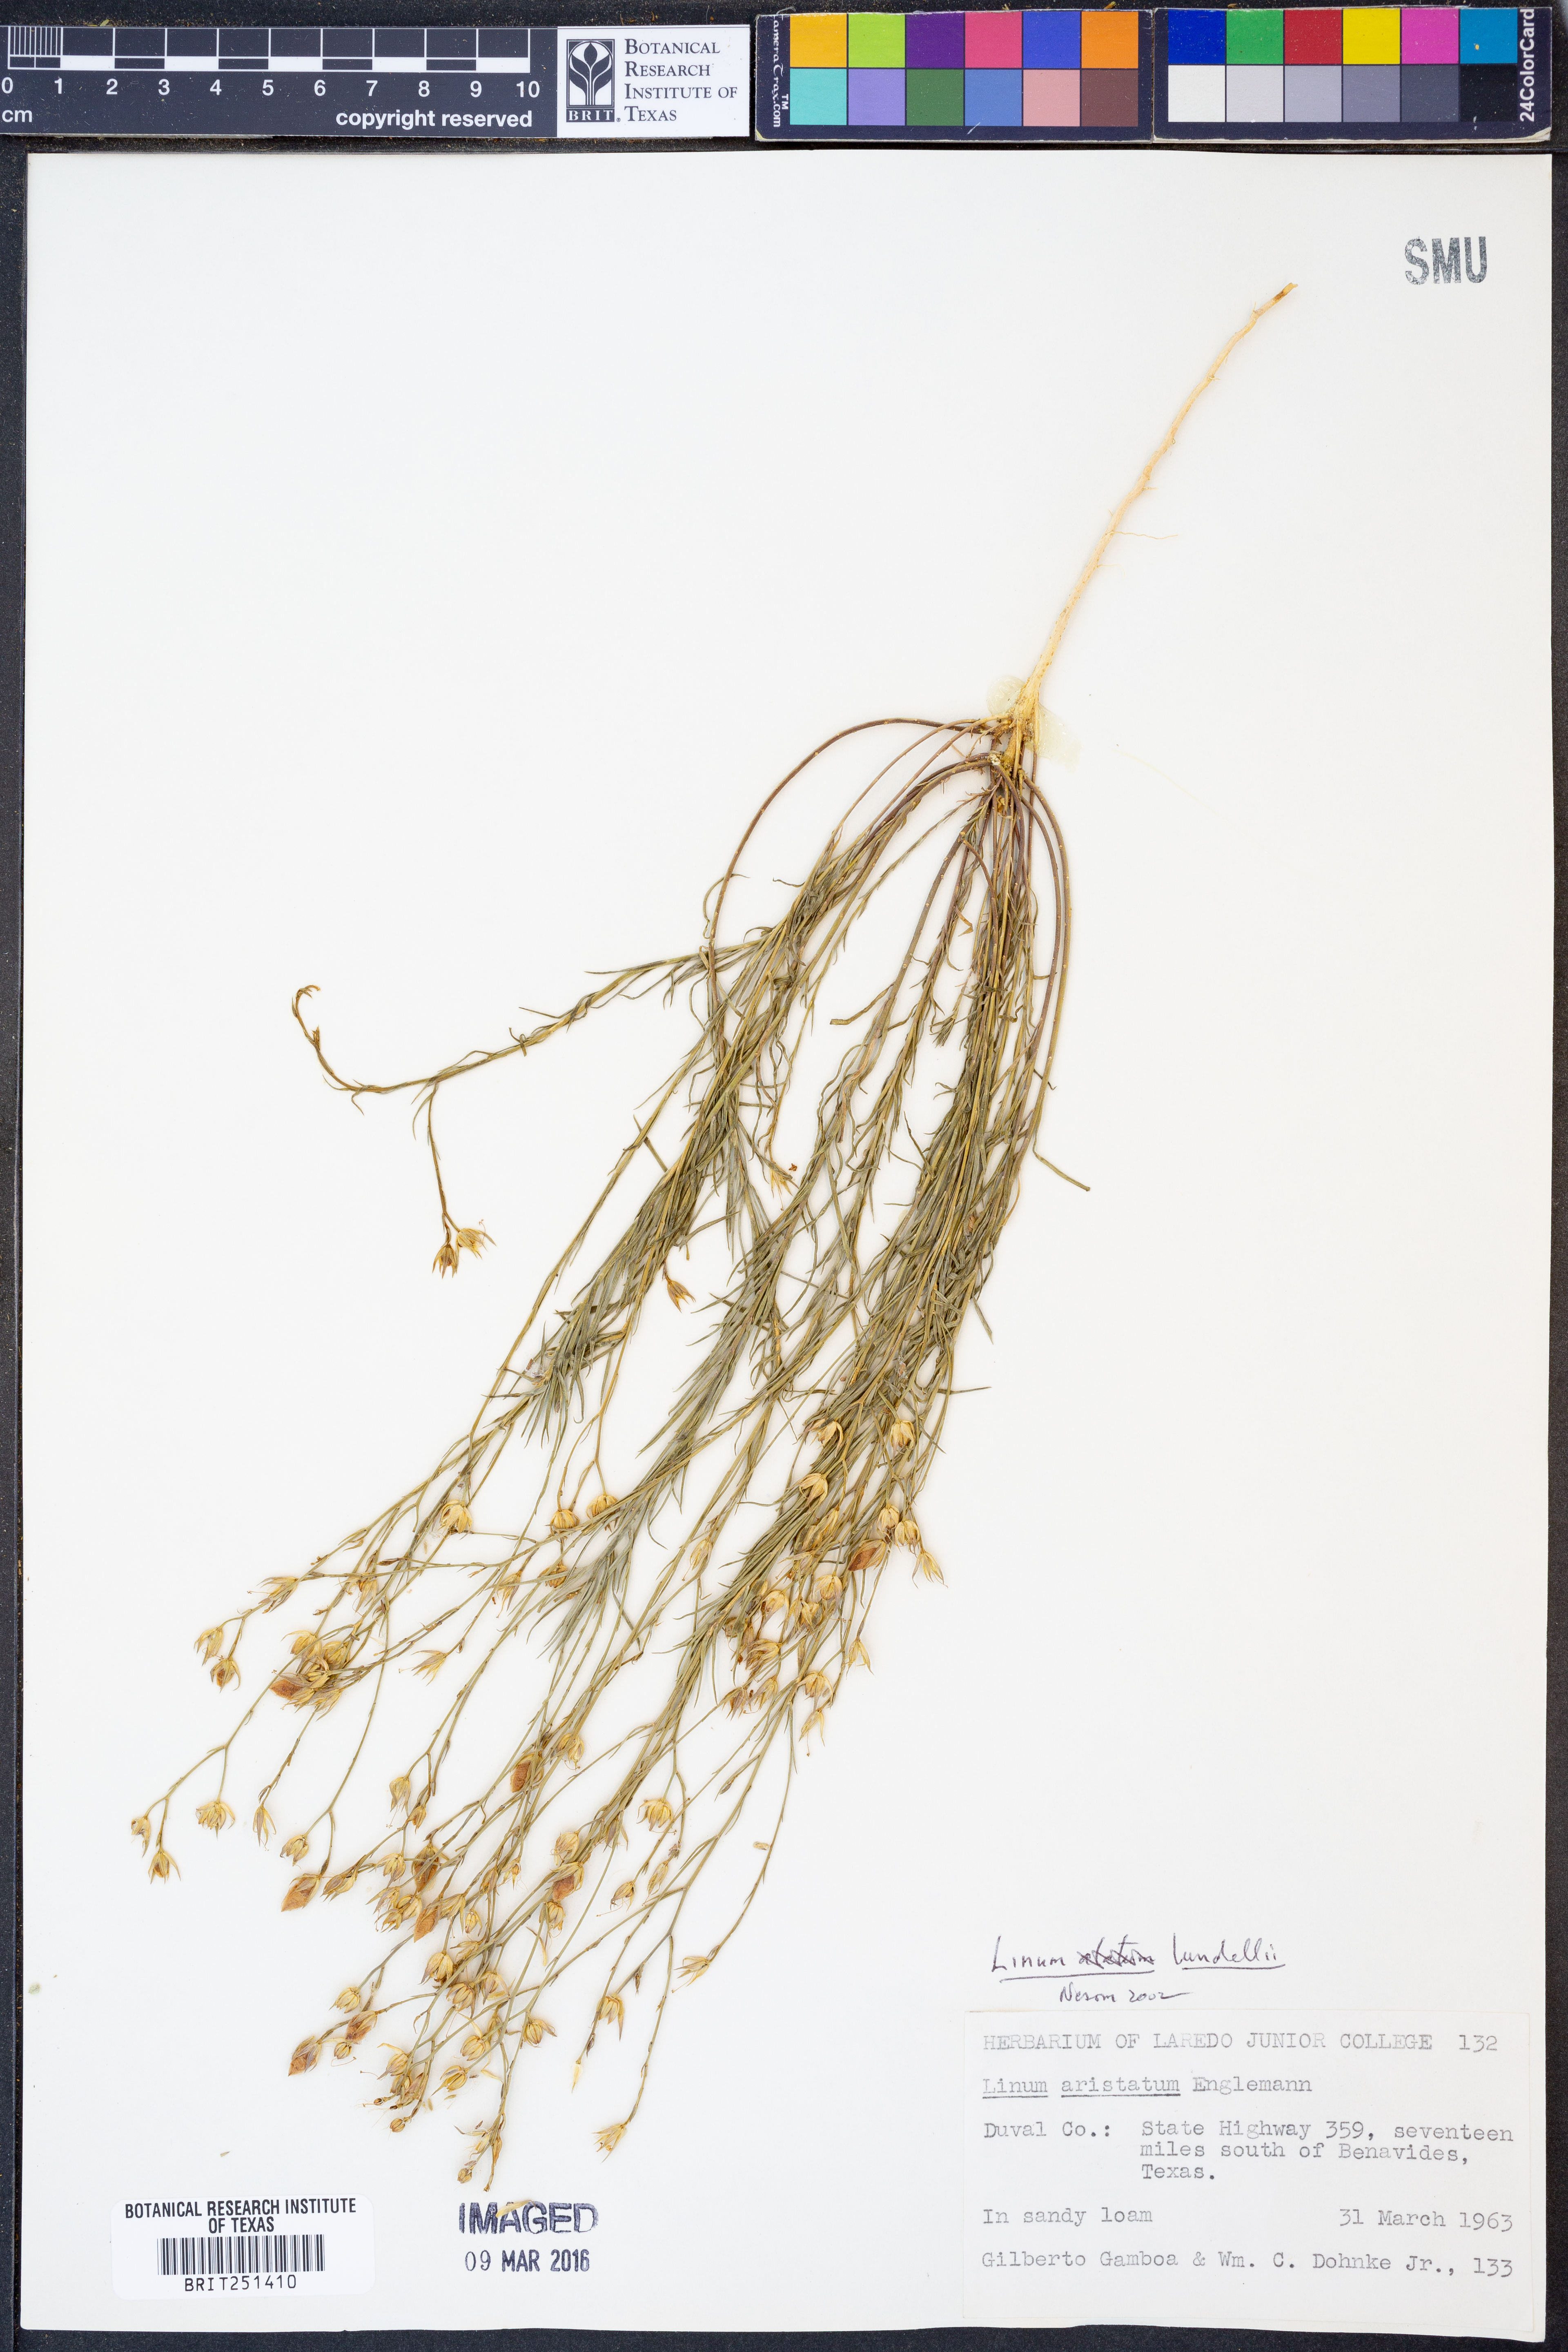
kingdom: Plantae
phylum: Tracheophyta
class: Magnoliopsida
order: Malpighiales
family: Linaceae
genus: Linum
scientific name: Linum lundellii
